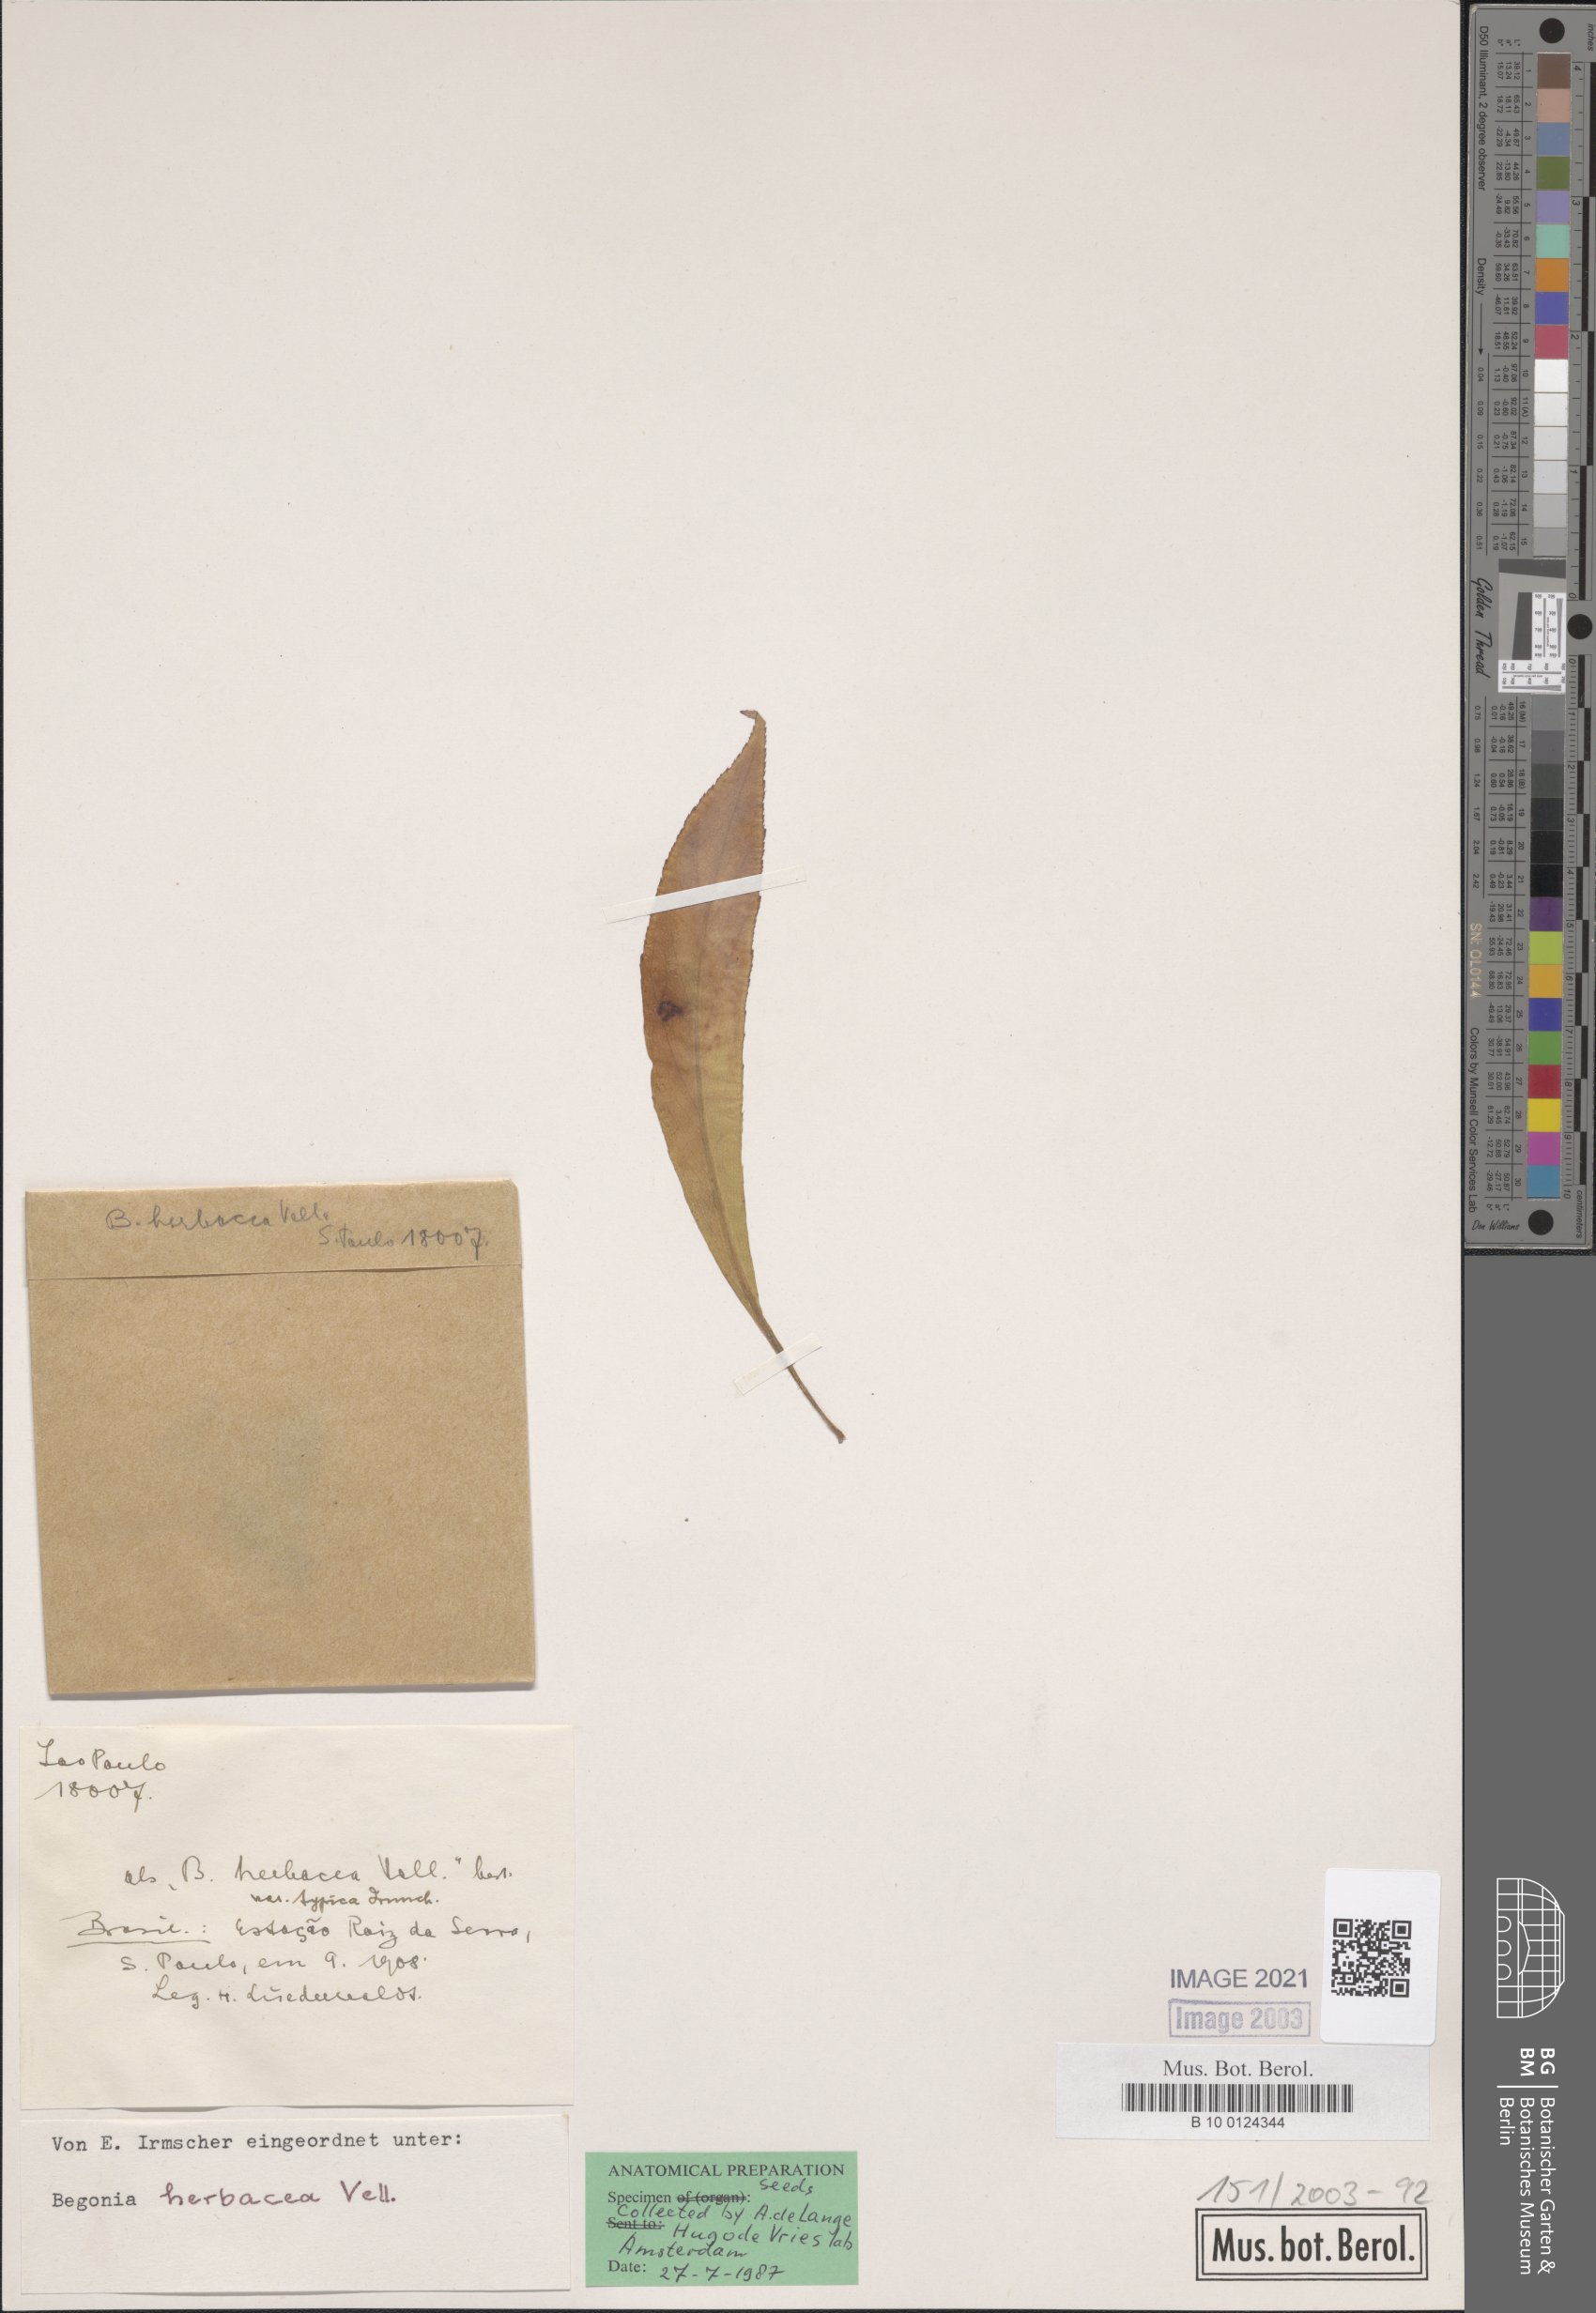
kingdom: Plantae
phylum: Tracheophyta
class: Magnoliopsida
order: Cucurbitales
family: Begoniaceae
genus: Begonia
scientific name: Begonia herbacea
